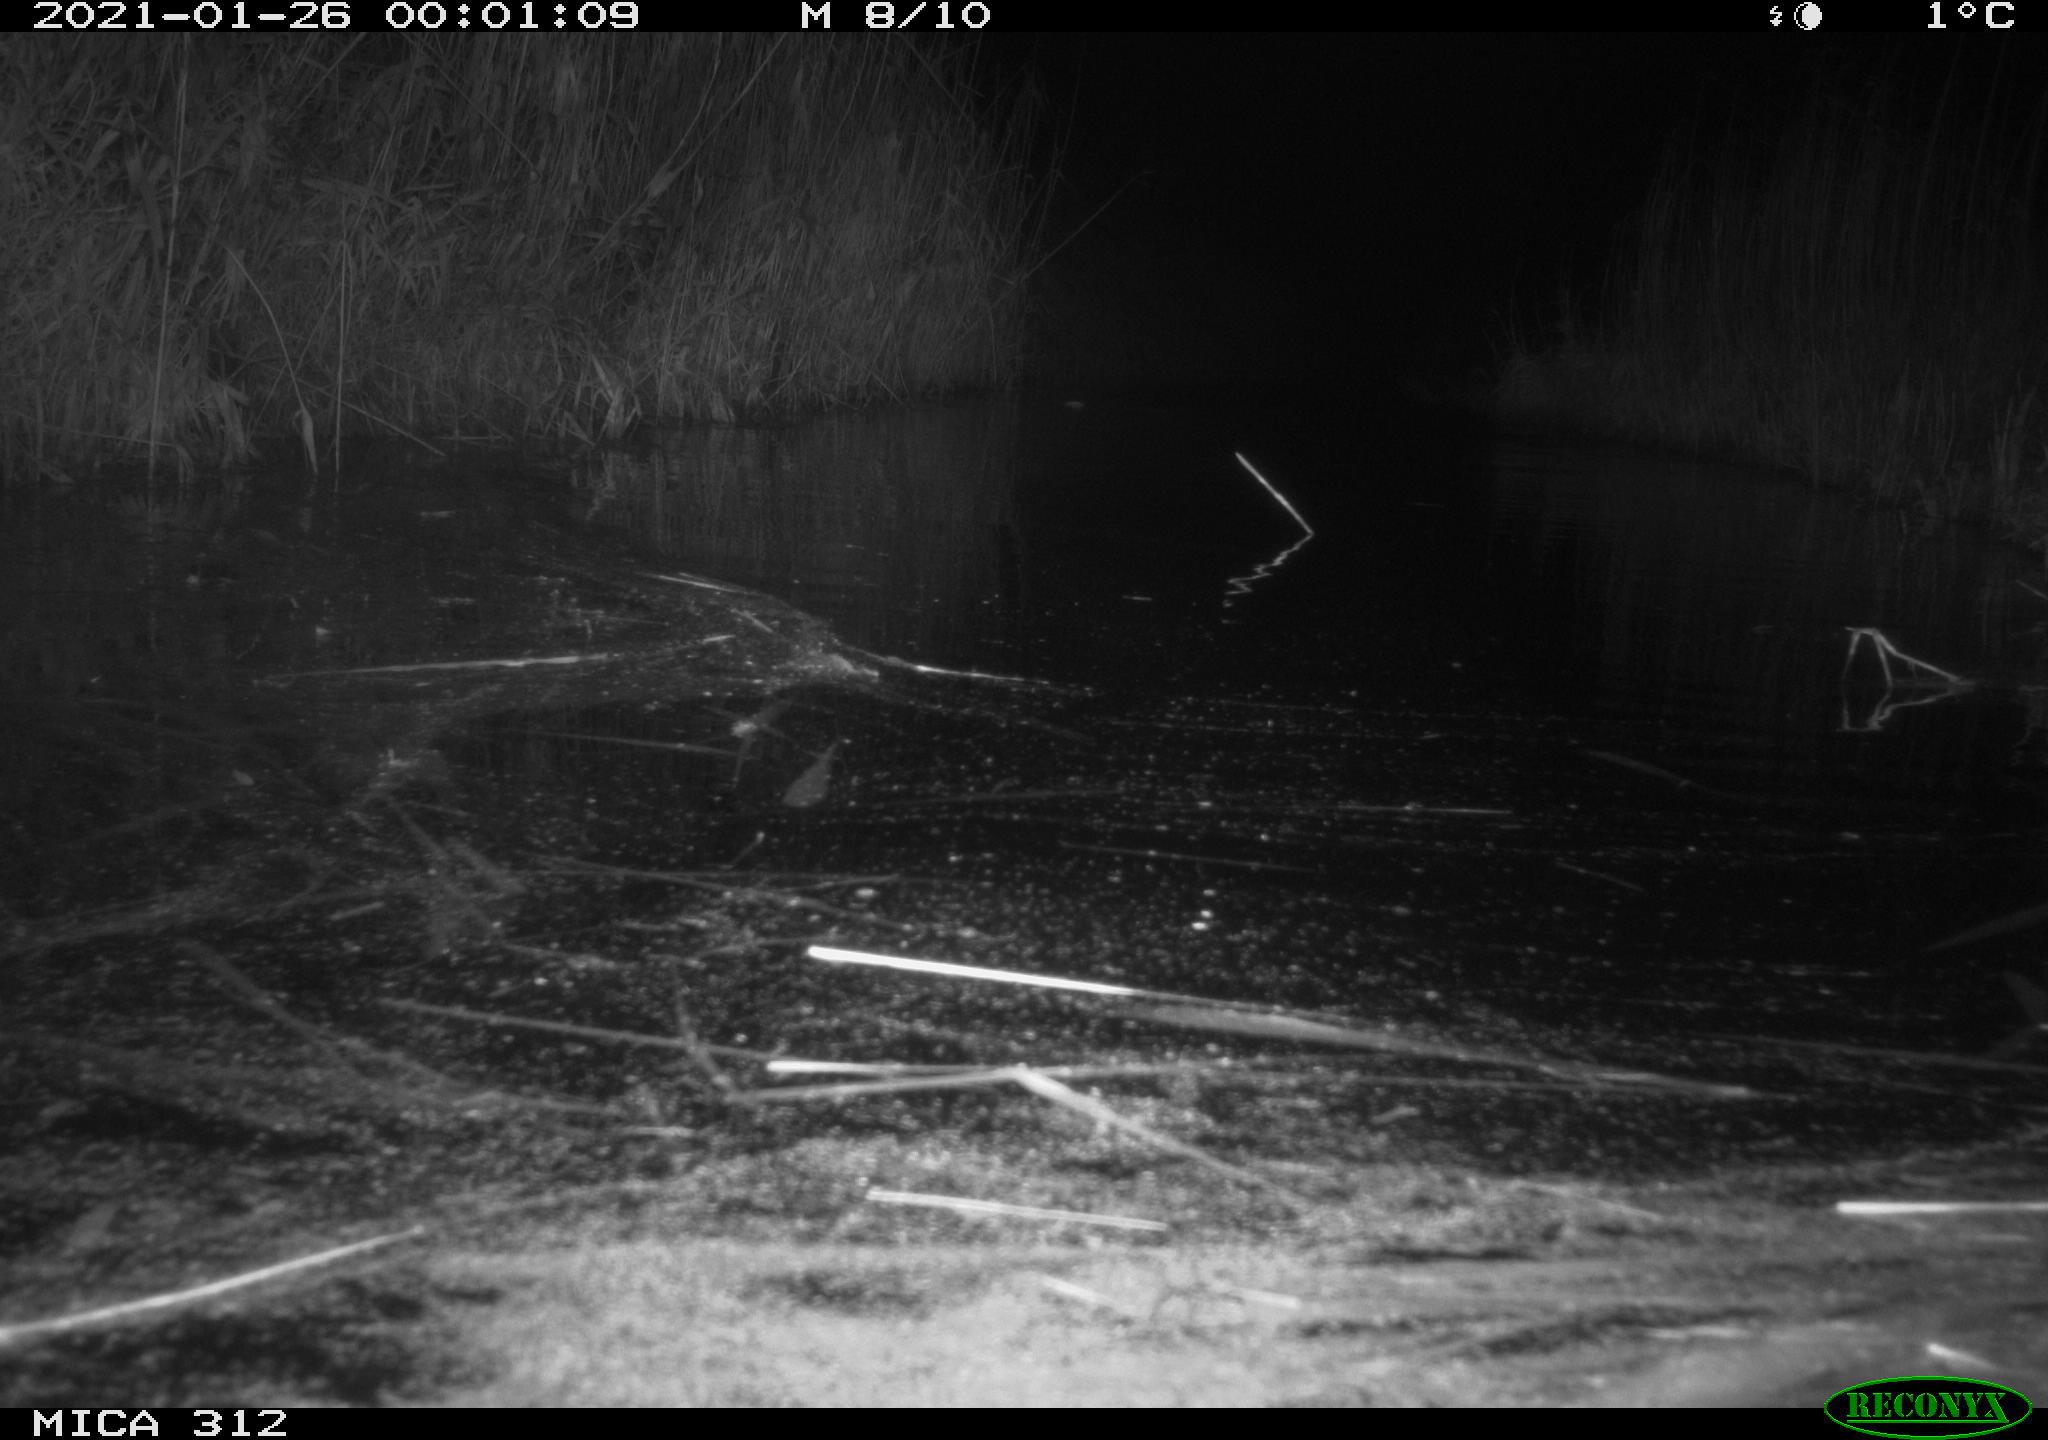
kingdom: Animalia
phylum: Chordata
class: Mammalia
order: Rodentia
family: Muridae
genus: Rattus
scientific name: Rattus norvegicus
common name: Brown rat
